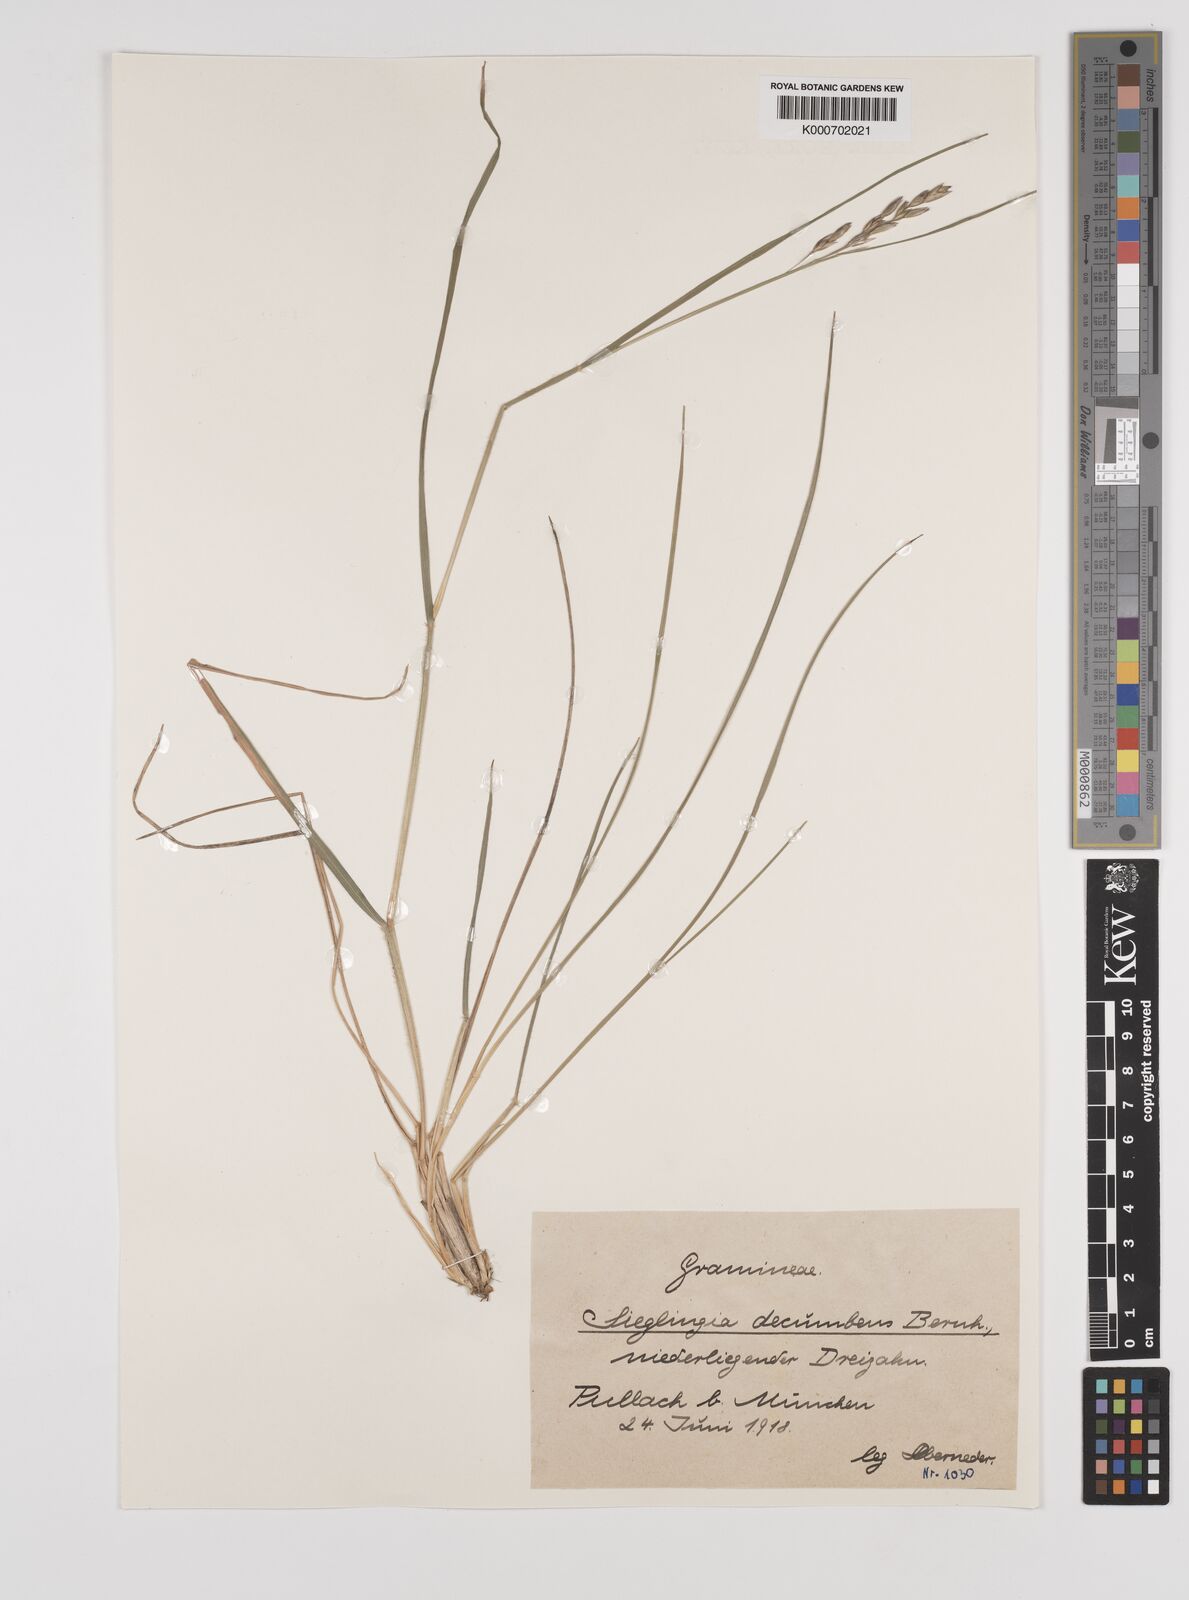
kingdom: Plantae
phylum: Tracheophyta
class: Liliopsida
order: Poales
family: Poaceae
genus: Danthonia
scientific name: Danthonia decumbens
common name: Common heathgrass
